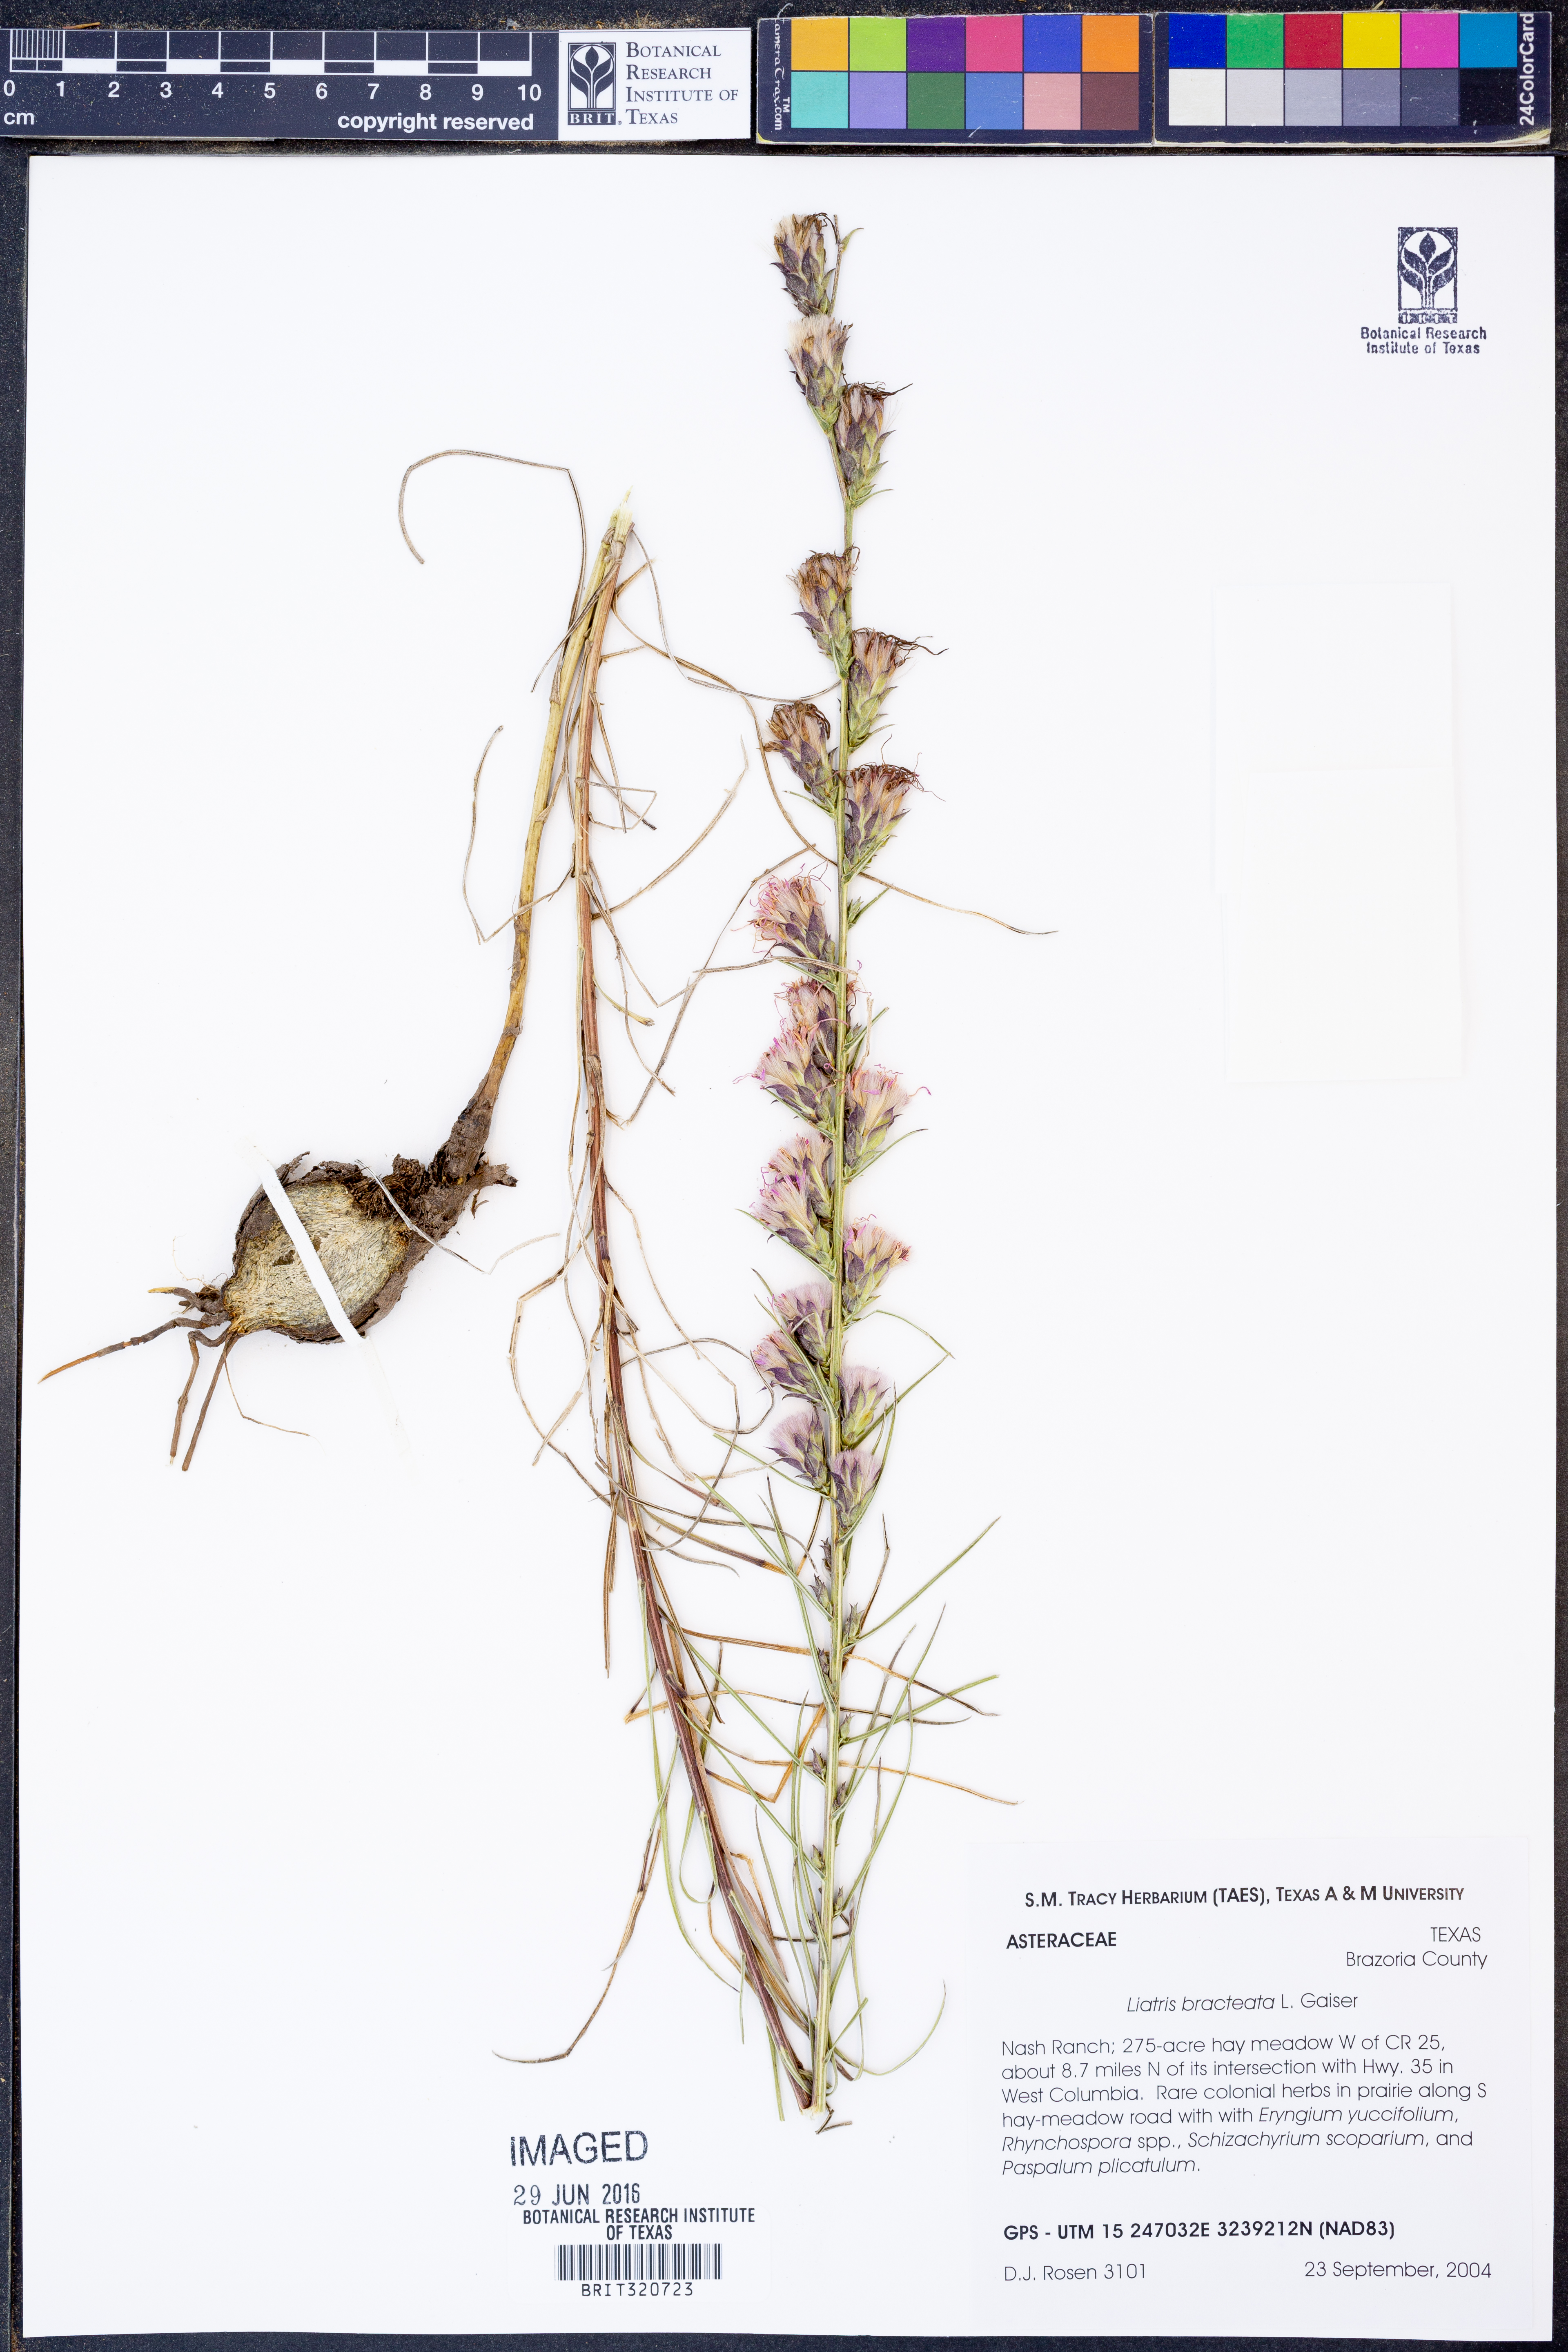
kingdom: Plantae
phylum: Tracheophyta
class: Magnoliopsida
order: Asterales
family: Asteraceae
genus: Liatris
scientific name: Liatris bracteata
